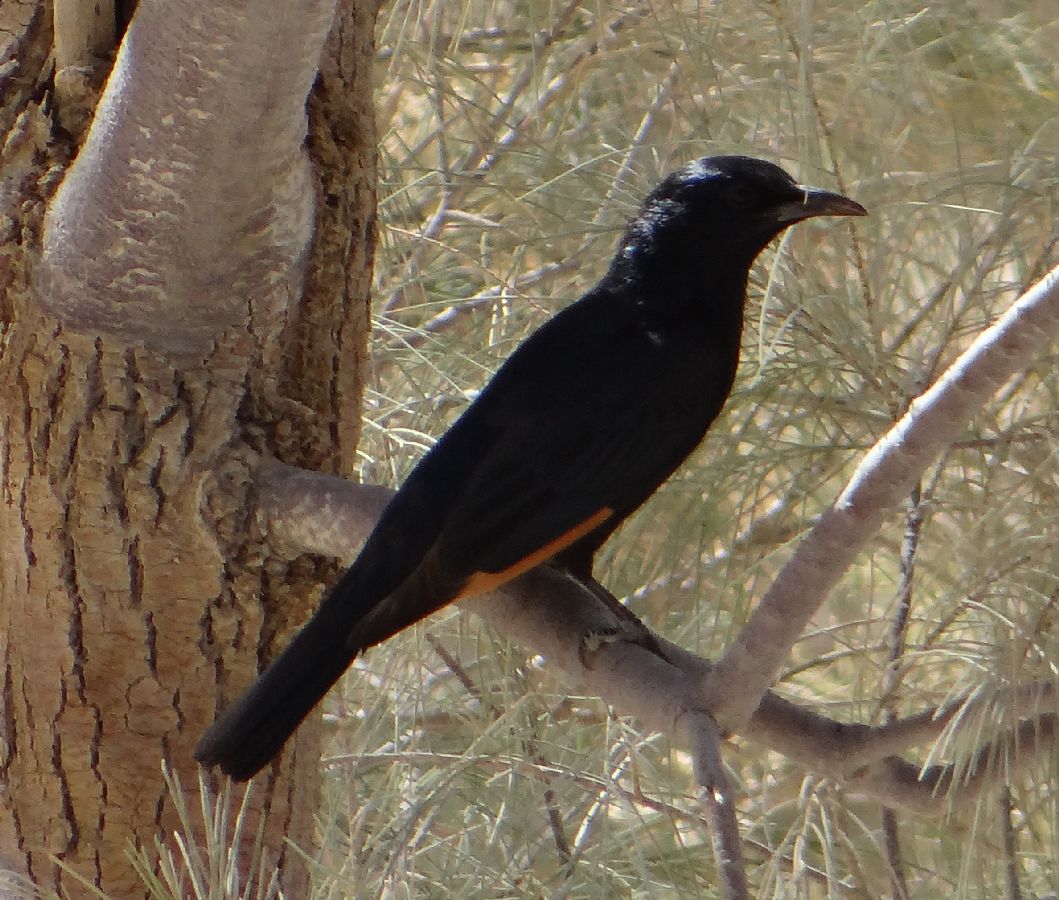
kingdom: Animalia
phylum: Chordata
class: Aves
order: Passeriformes
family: Sturnidae
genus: Onychognathus
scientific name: Onychognathus tristramii
